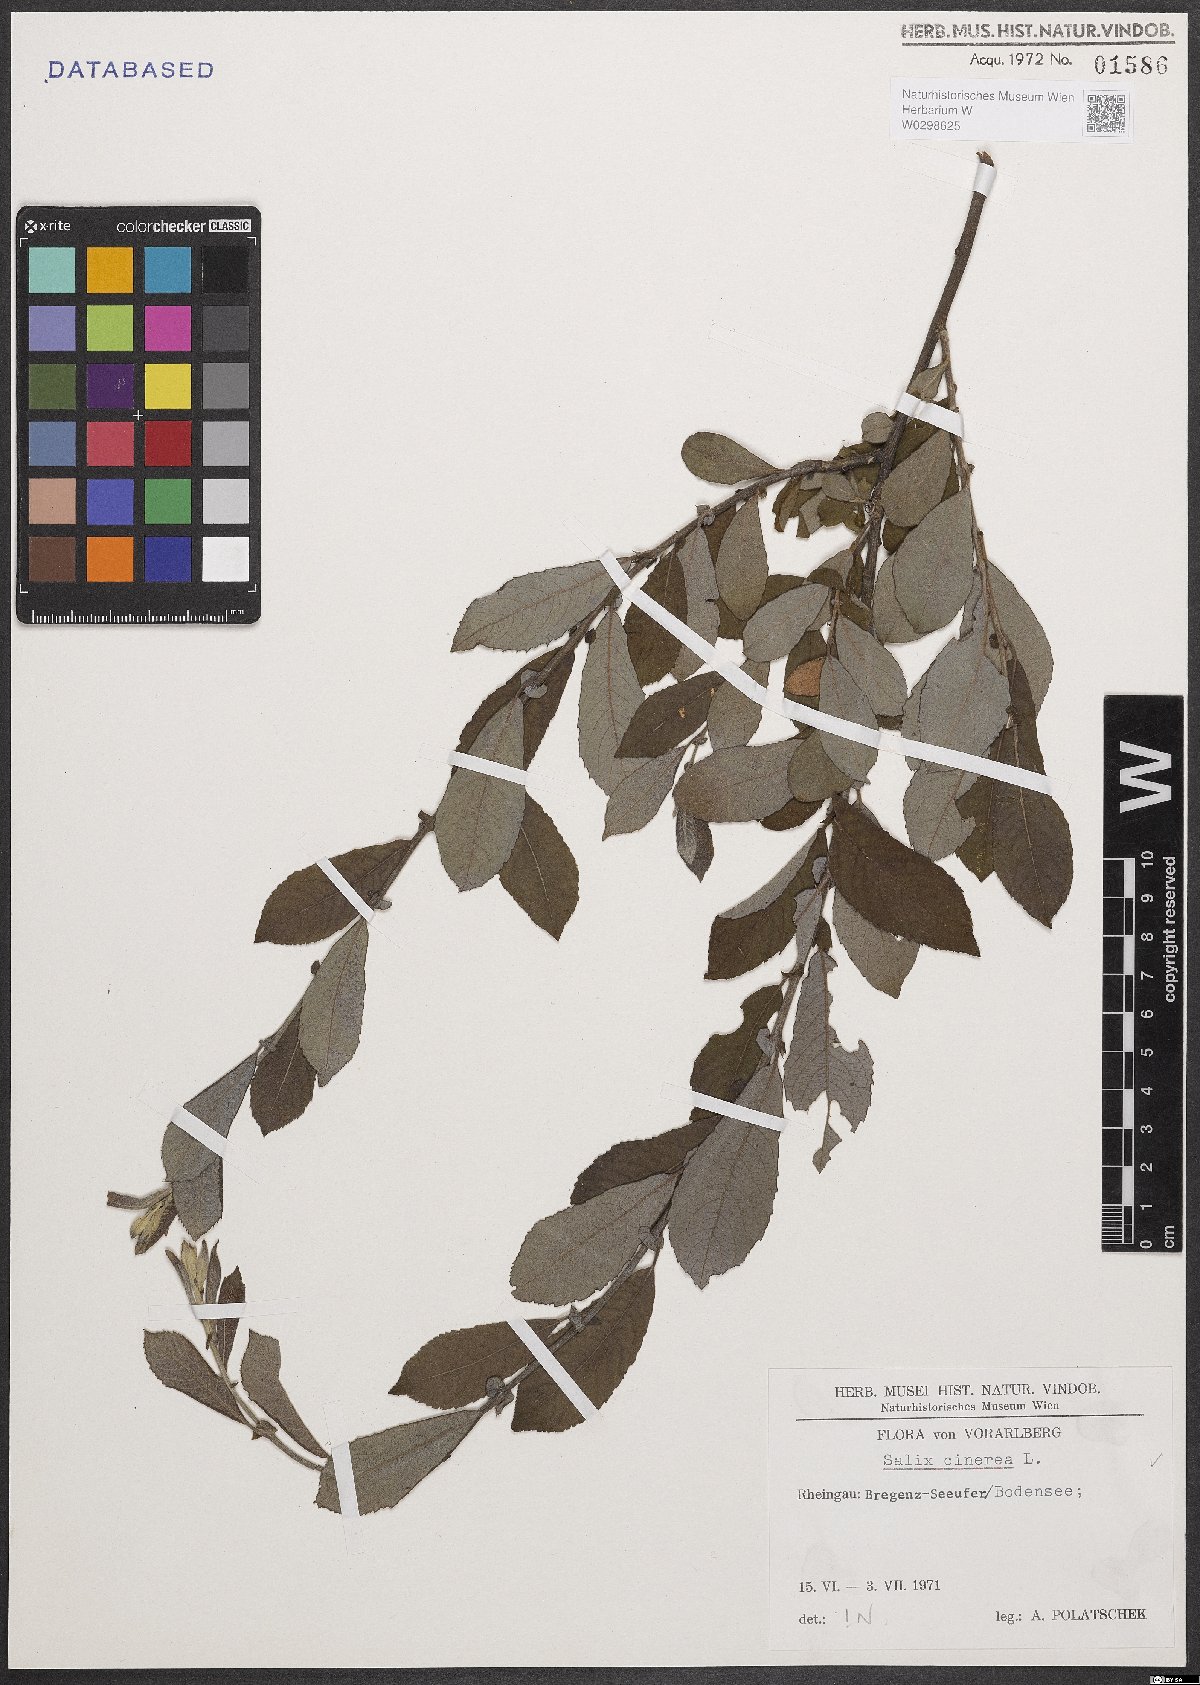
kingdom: Plantae
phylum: Tracheophyta
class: Magnoliopsida
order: Malpighiales
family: Salicaceae
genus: Salix
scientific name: Salix cinerea
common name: Common sallow
